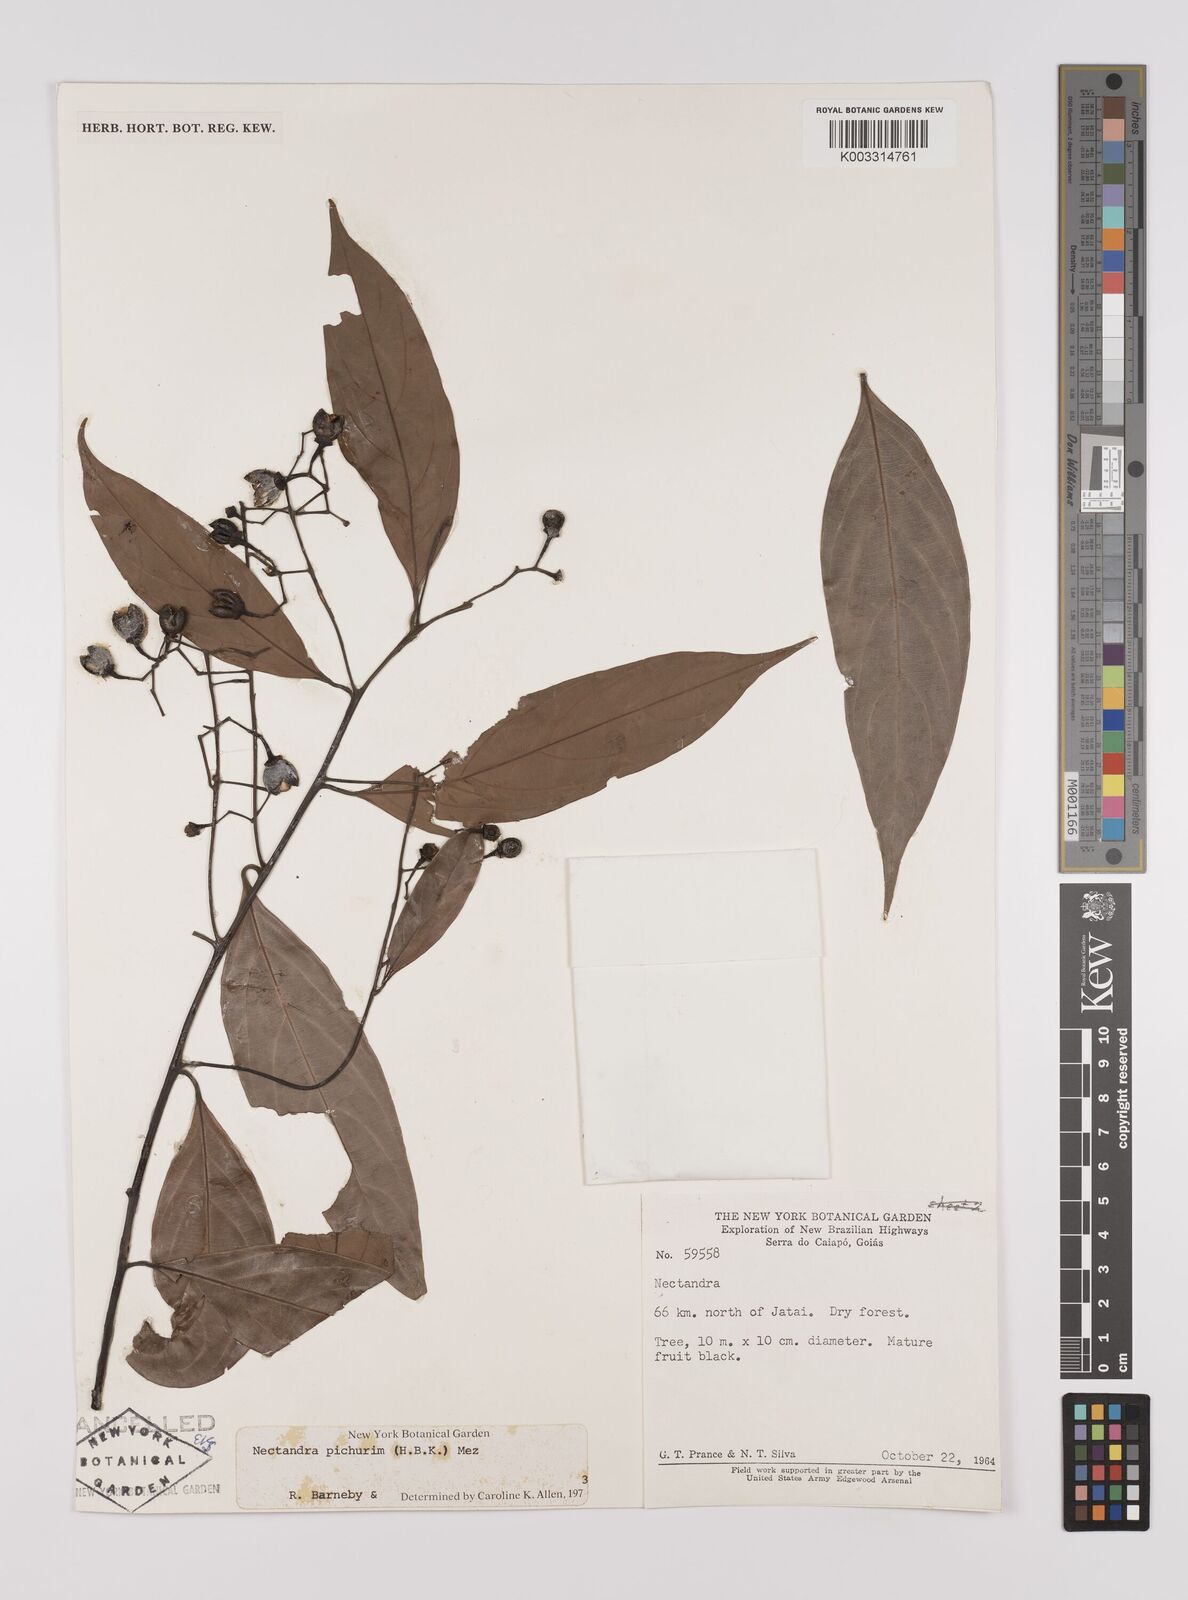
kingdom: Plantae
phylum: Tracheophyta
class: Magnoliopsida
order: Laurales
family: Lauraceae
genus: Nectandra
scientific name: Nectandra cuspidata
